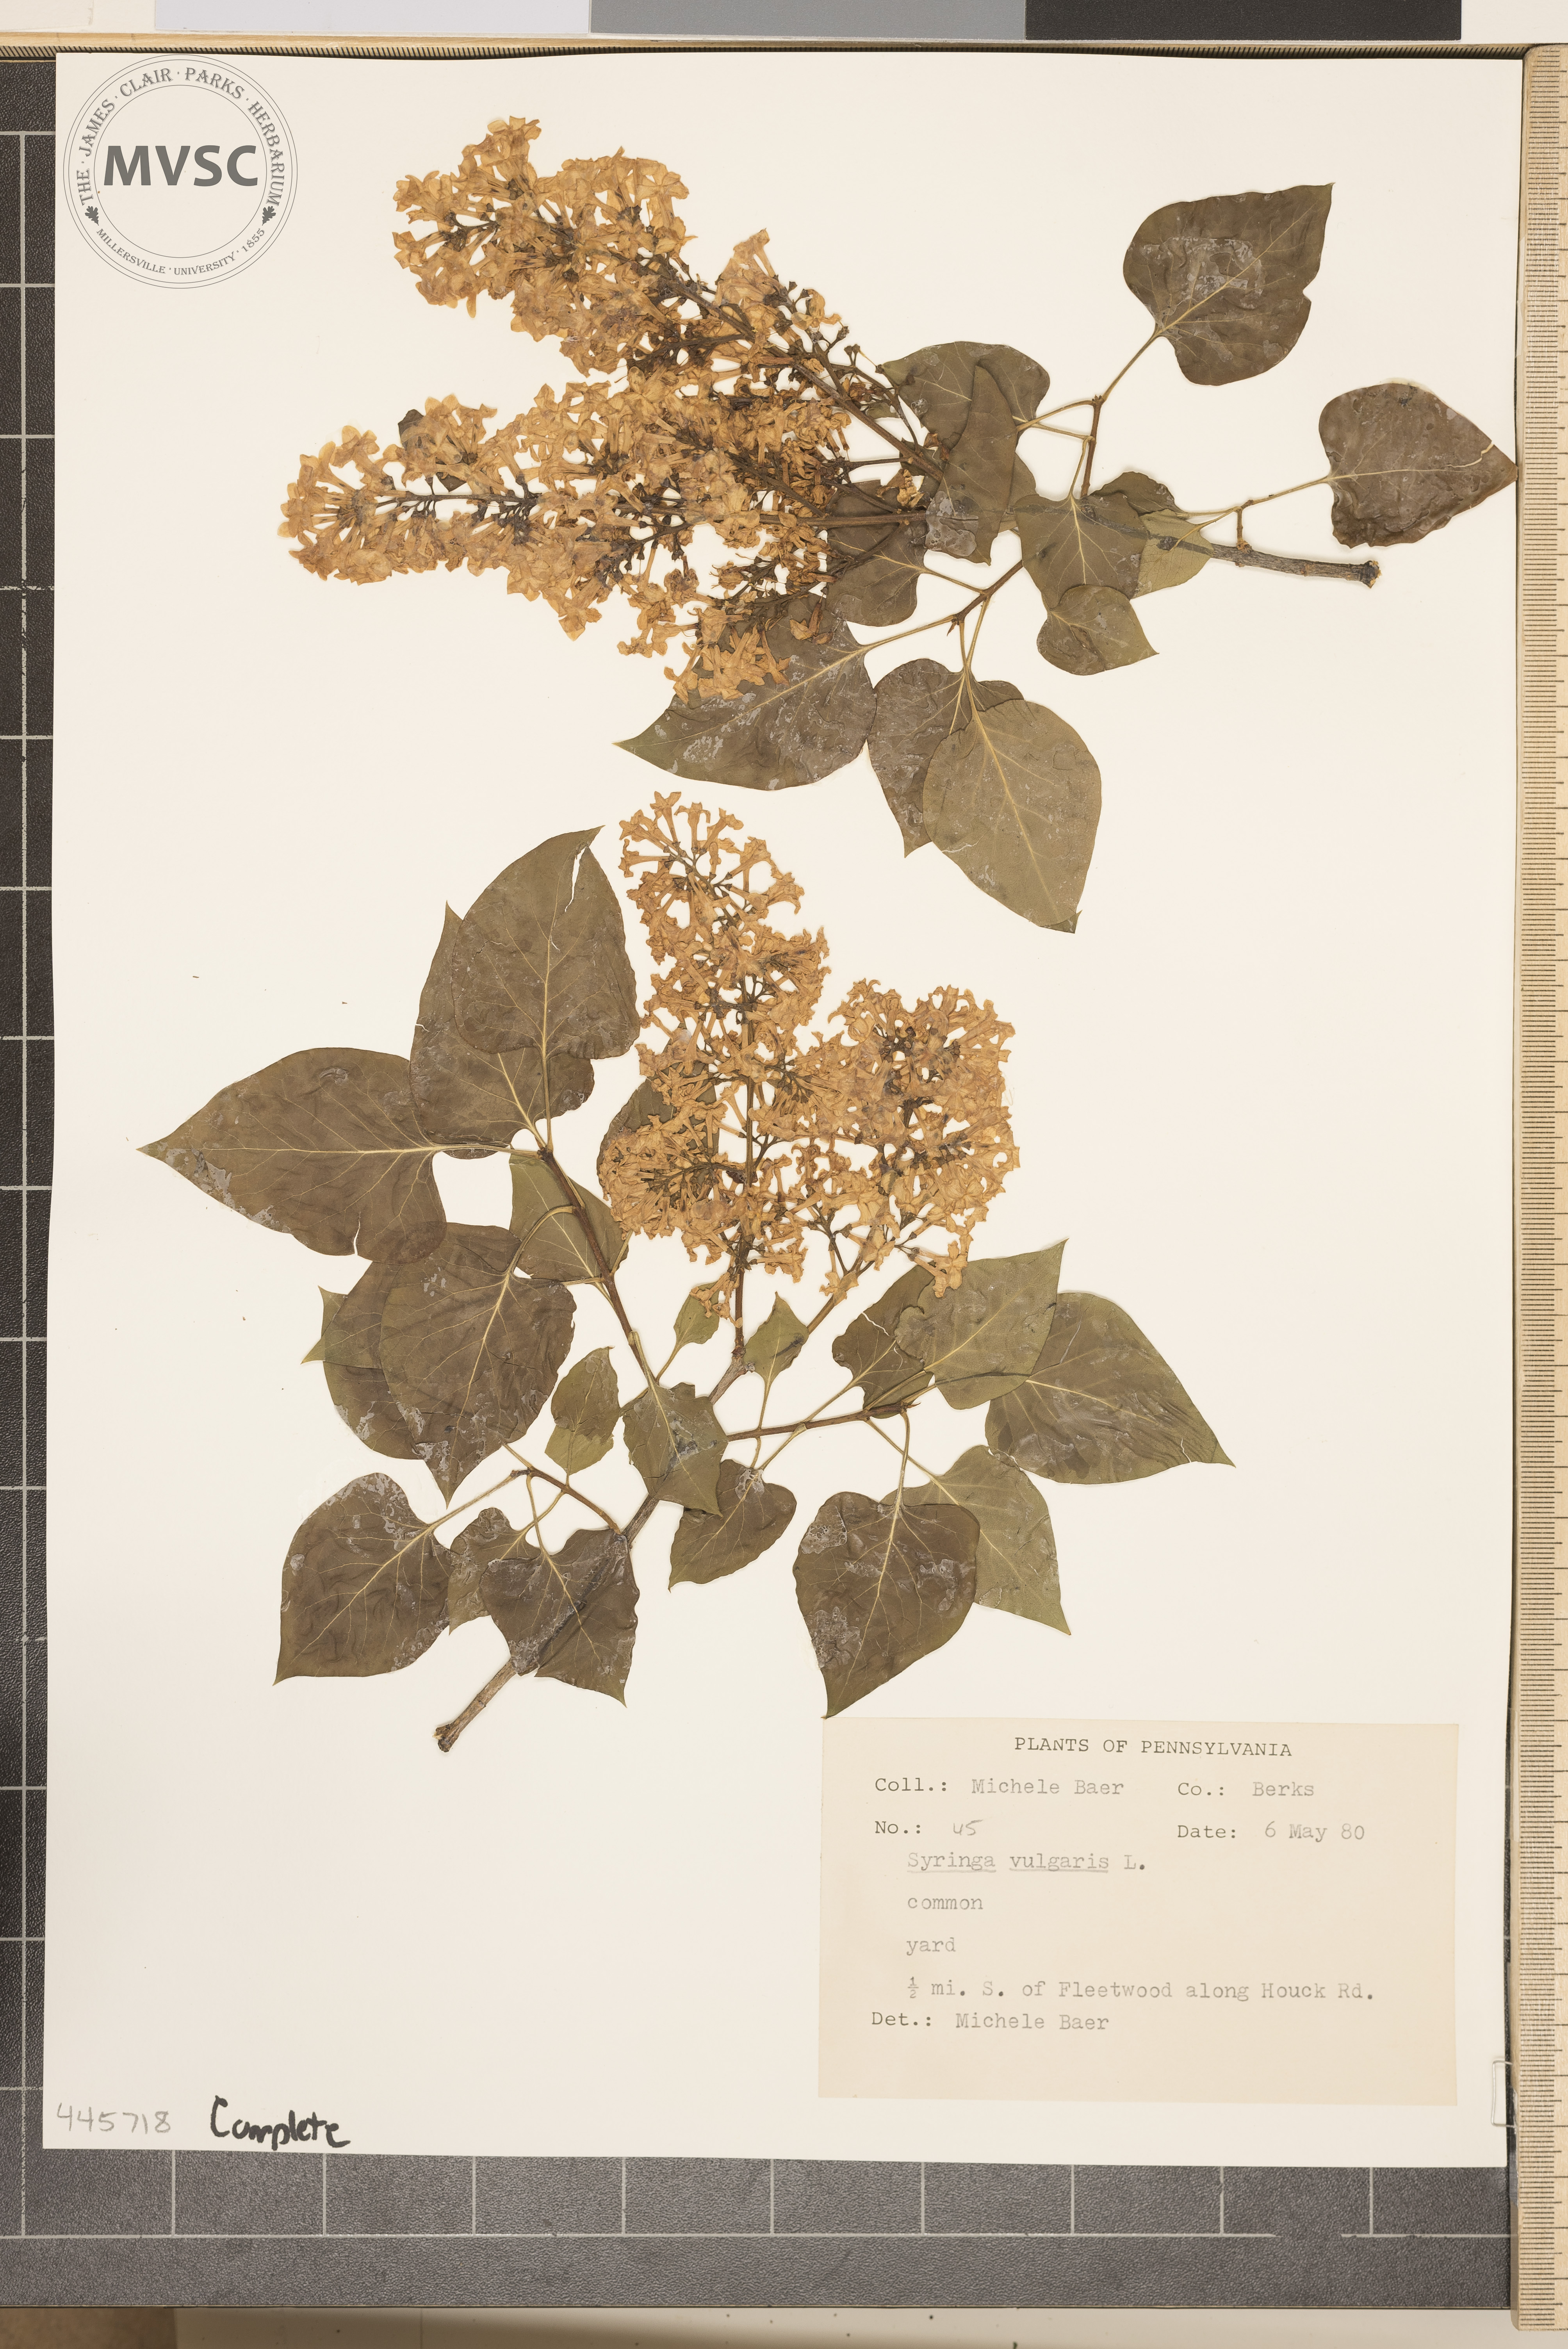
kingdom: Plantae
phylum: Tracheophyta
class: Magnoliopsida
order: Lamiales
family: Oleaceae
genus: Syringa
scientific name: Syringa vulgaris
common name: Common lilac
